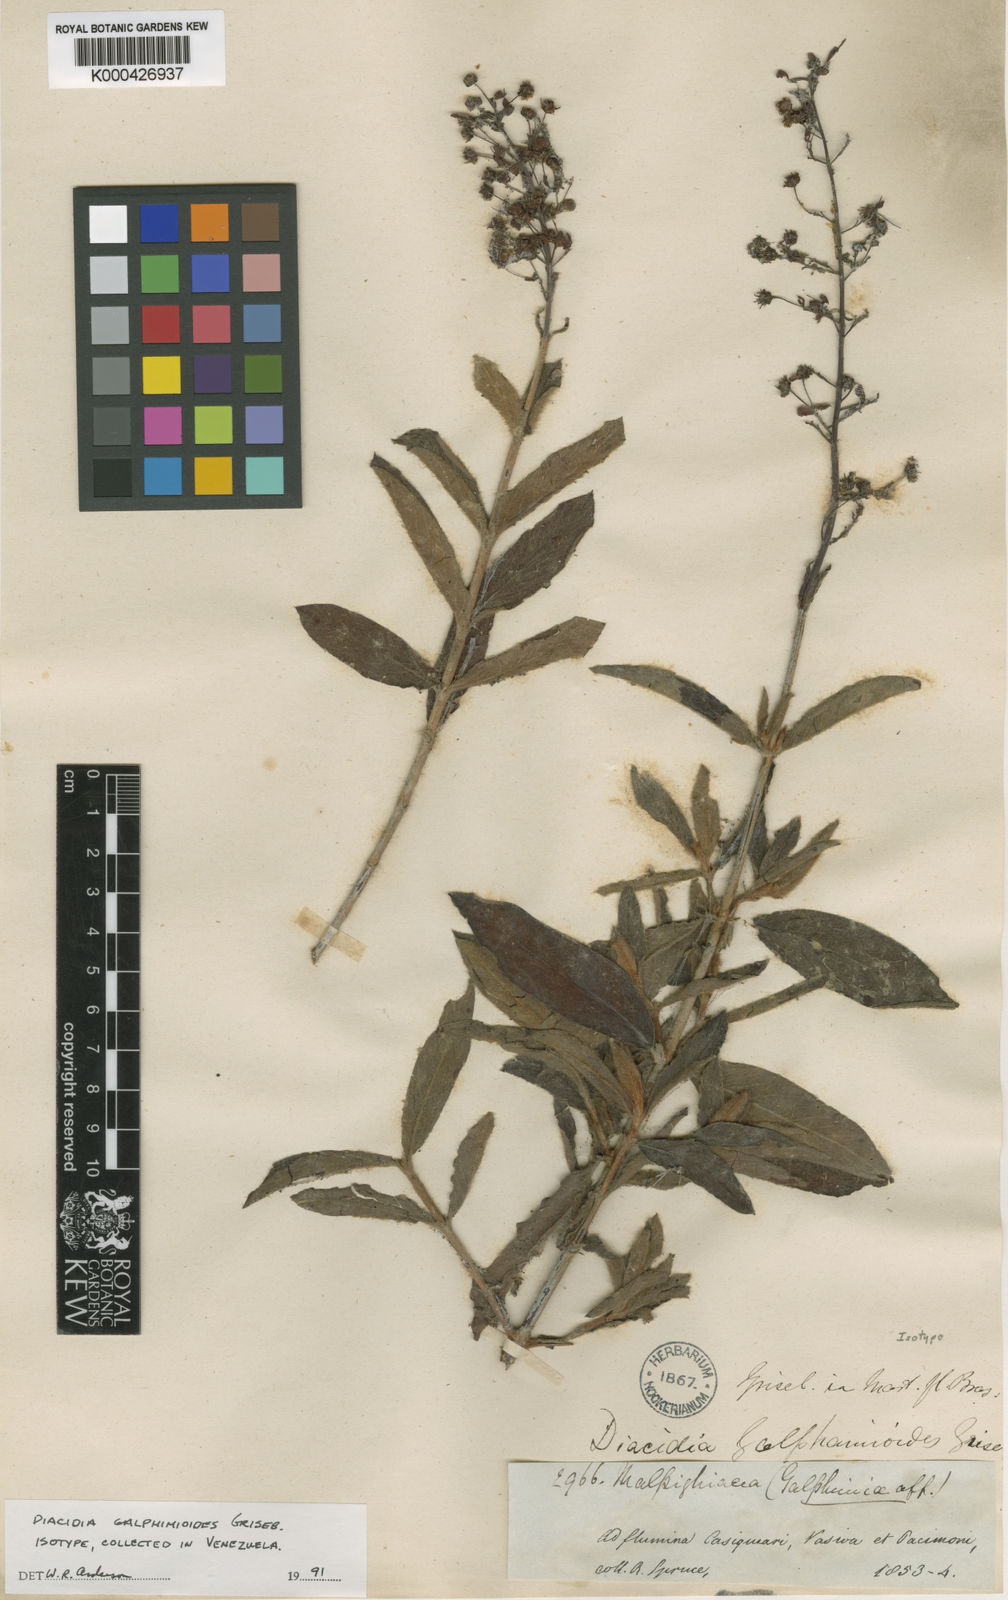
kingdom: Plantae
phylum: Tracheophyta
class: Magnoliopsida
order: Malpighiales
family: Malpighiaceae
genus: Diacidia
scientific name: Diacidia galphimioides
